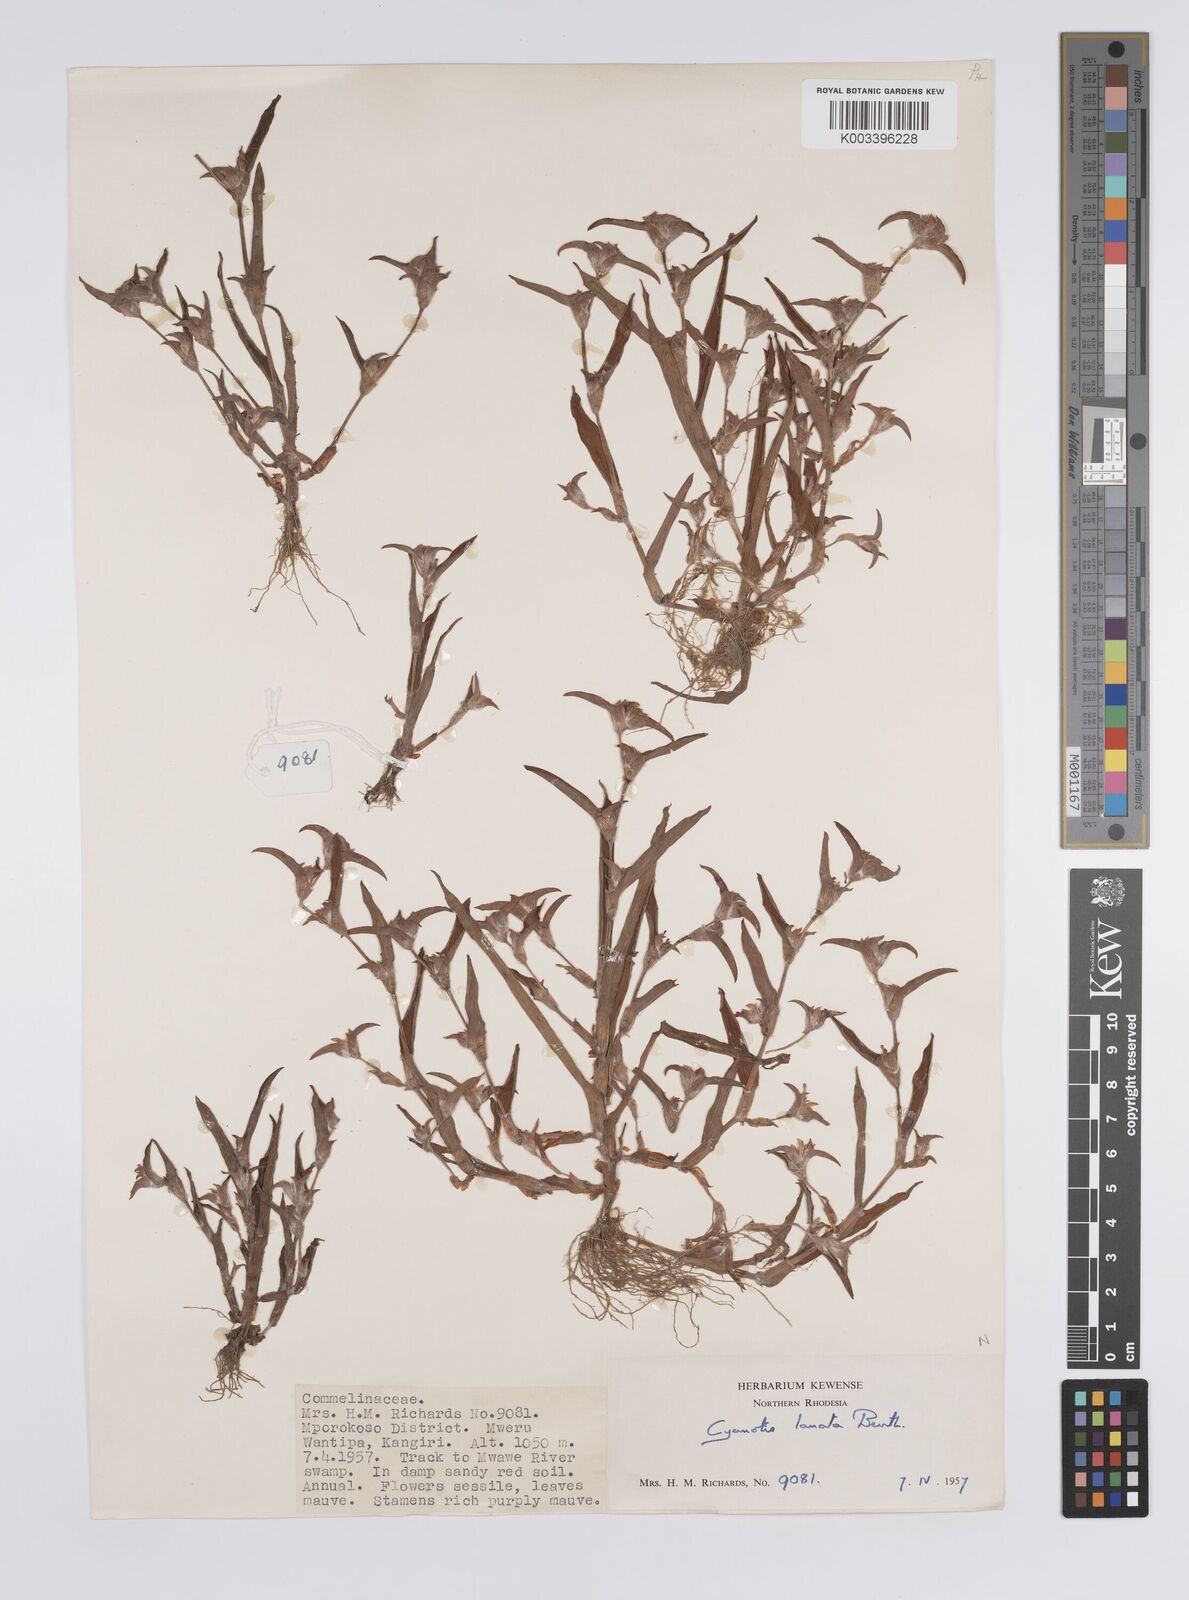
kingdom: Plantae
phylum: Tracheophyta
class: Liliopsida
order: Commelinales
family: Commelinaceae
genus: Cyanotis
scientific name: Cyanotis lanata
